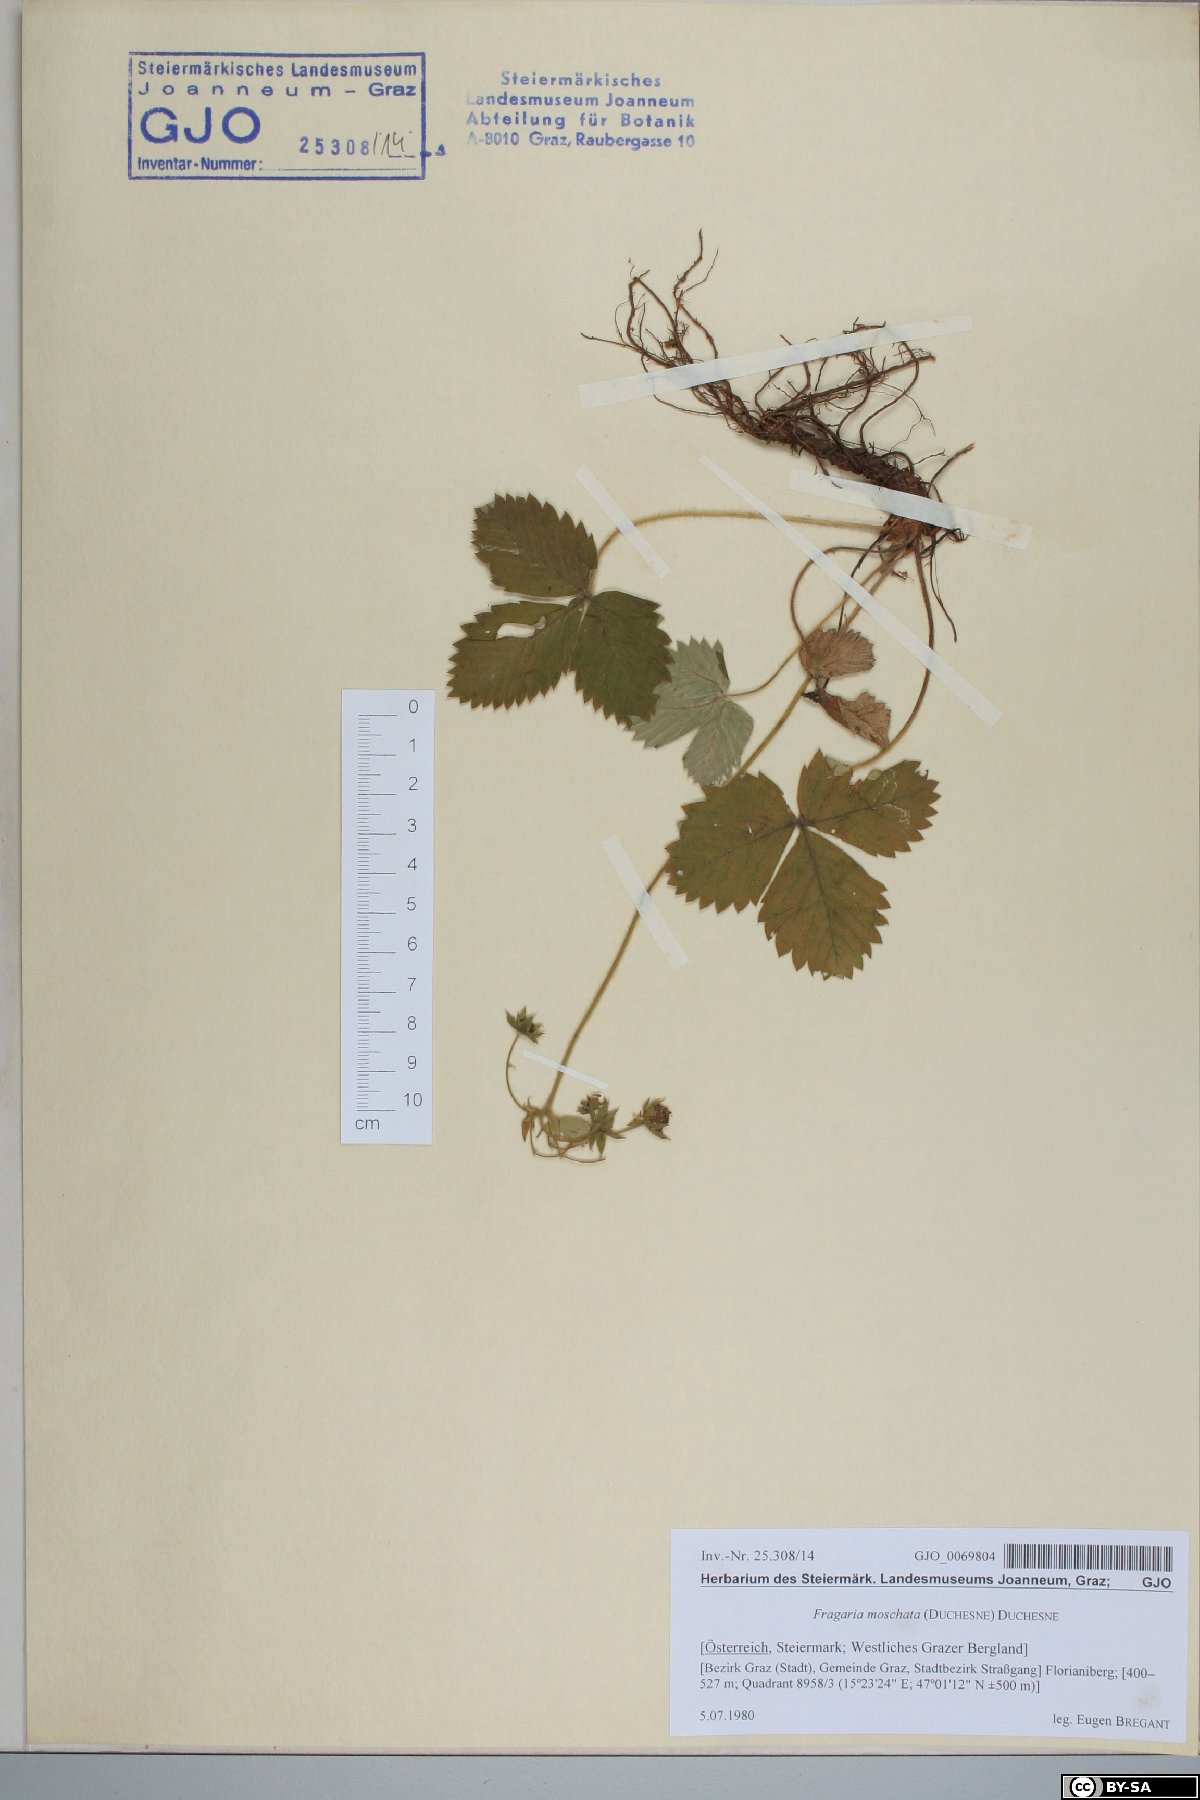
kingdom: Plantae
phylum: Tracheophyta
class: Magnoliopsida
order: Rosales
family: Rosaceae
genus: Fragaria
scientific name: Fragaria moschata
